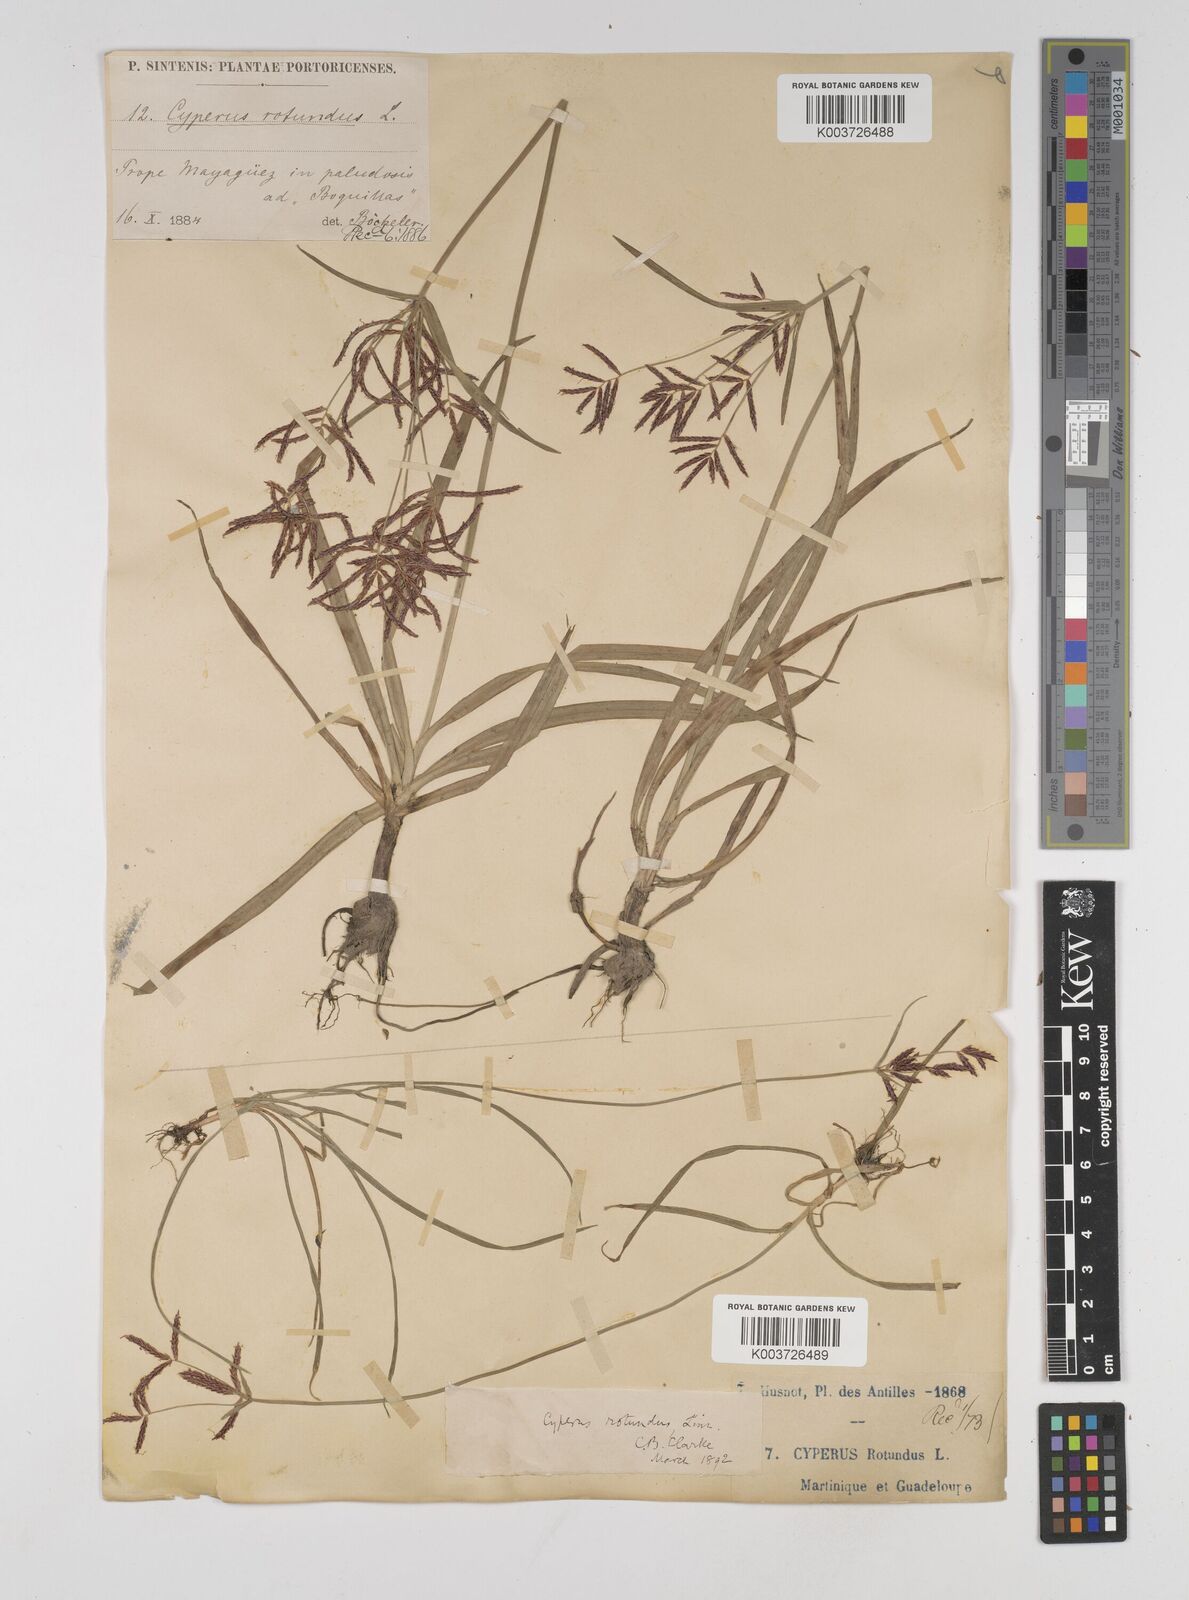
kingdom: Plantae
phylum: Tracheophyta
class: Liliopsida
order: Poales
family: Cyperaceae
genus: Cyperus
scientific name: Cyperus rotundus
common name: Nutgrass
